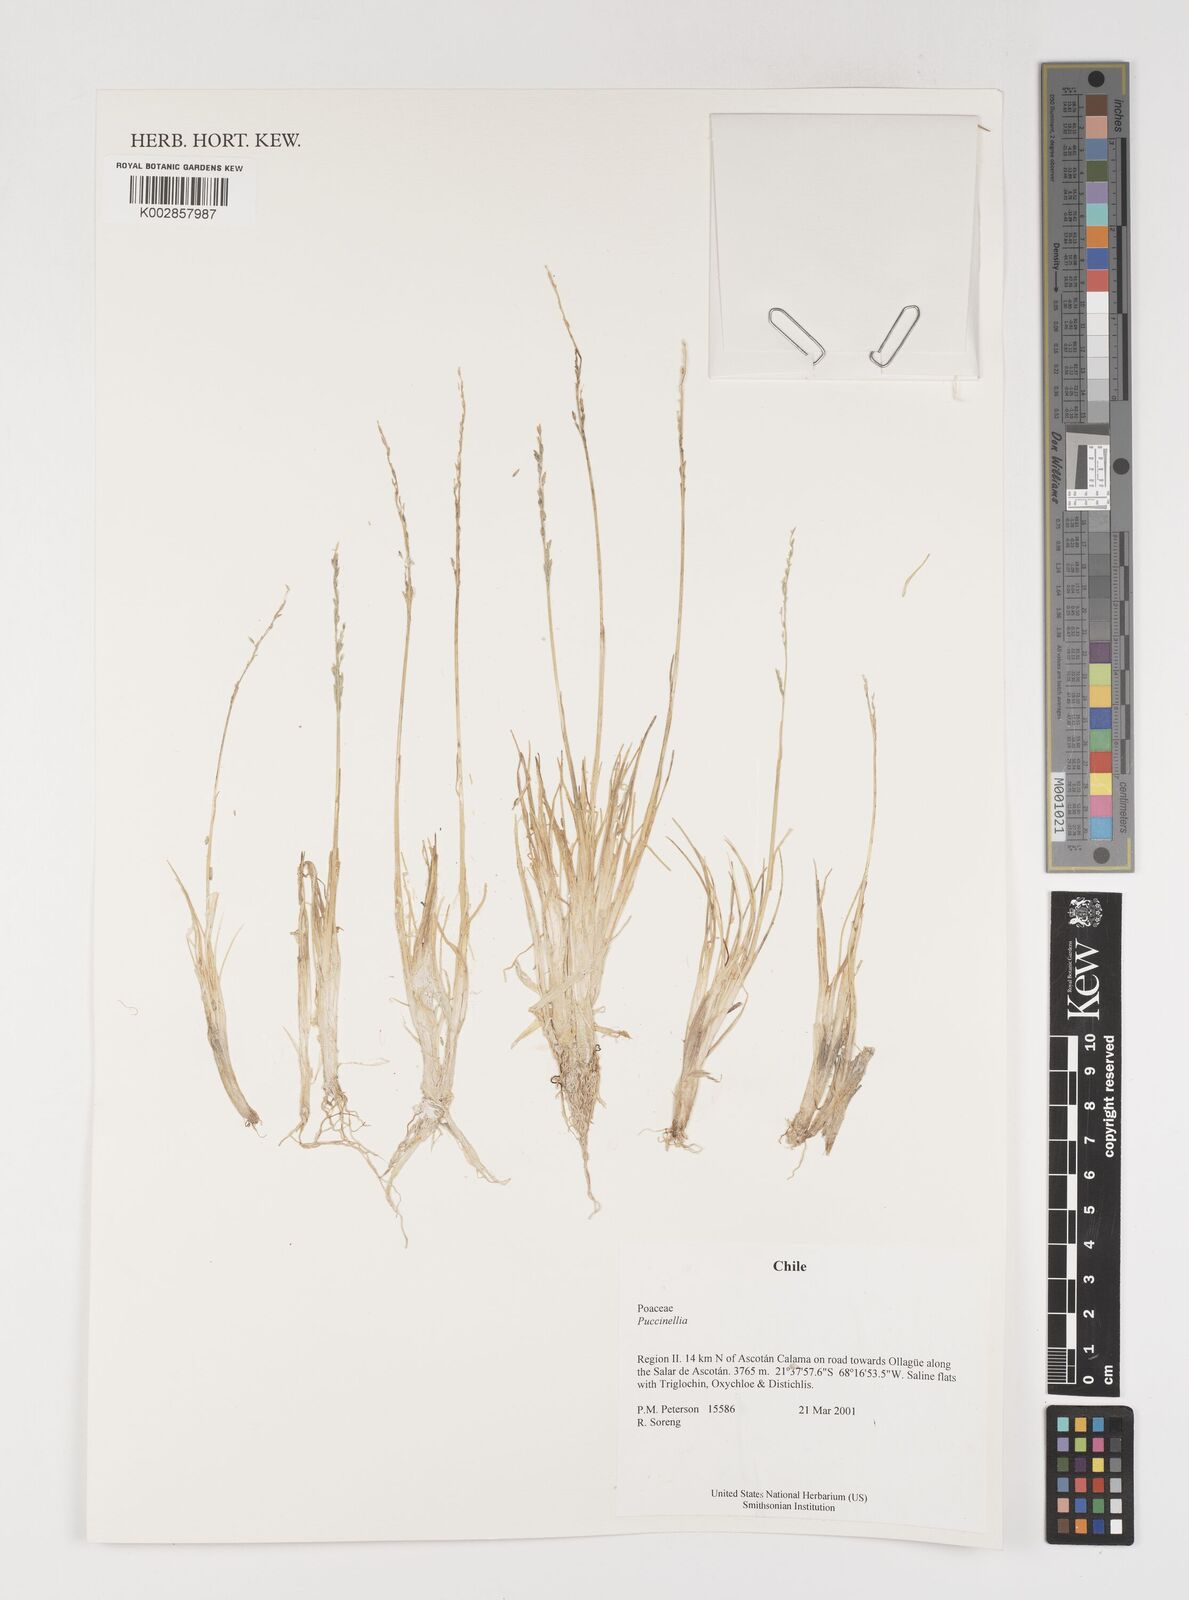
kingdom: Plantae
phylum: Tracheophyta
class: Liliopsida
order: Poales
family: Poaceae
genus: Puccinellia
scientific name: Puccinellia
